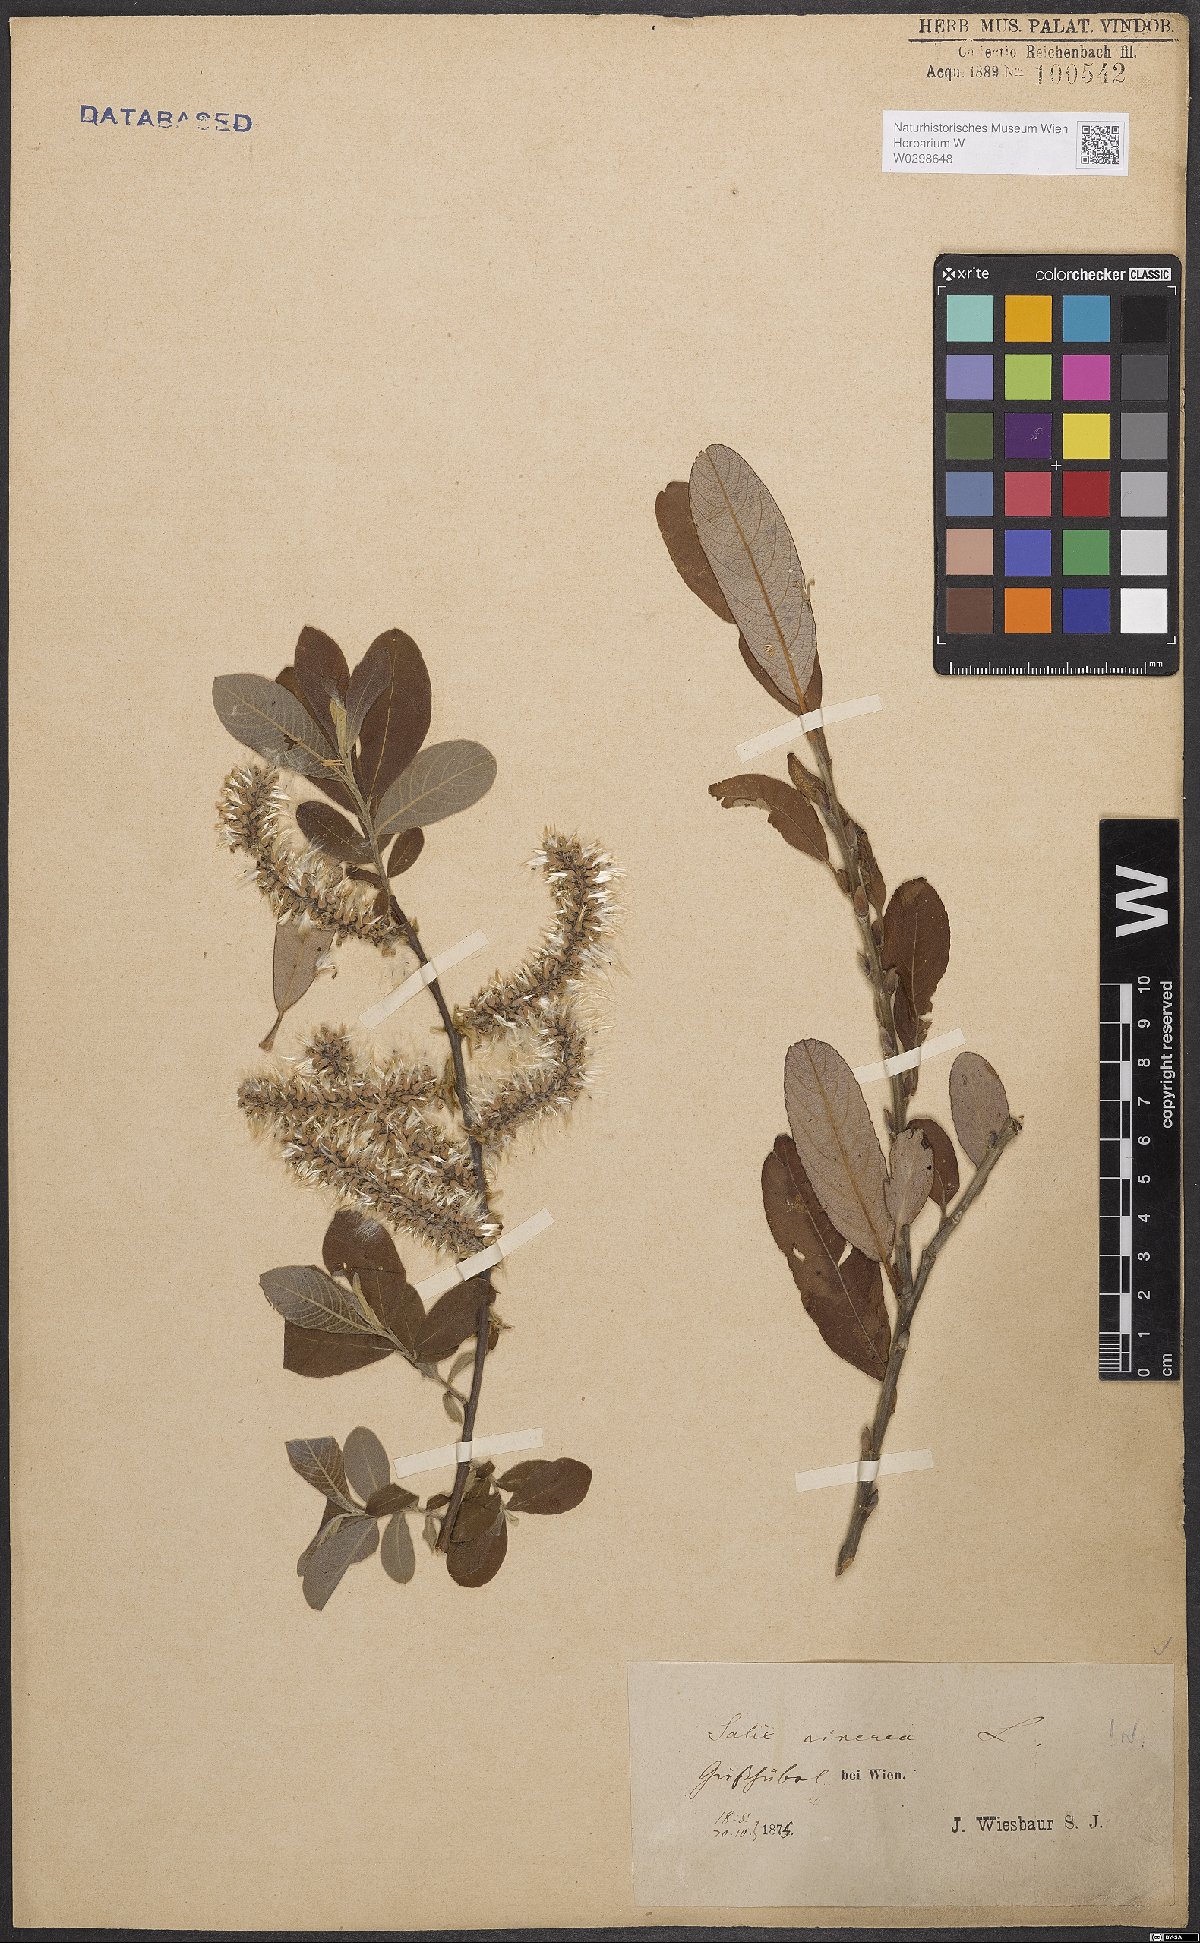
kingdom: Plantae
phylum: Tracheophyta
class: Magnoliopsida
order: Malpighiales
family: Salicaceae
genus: Salix
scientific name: Salix cinerea
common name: Common sallow
